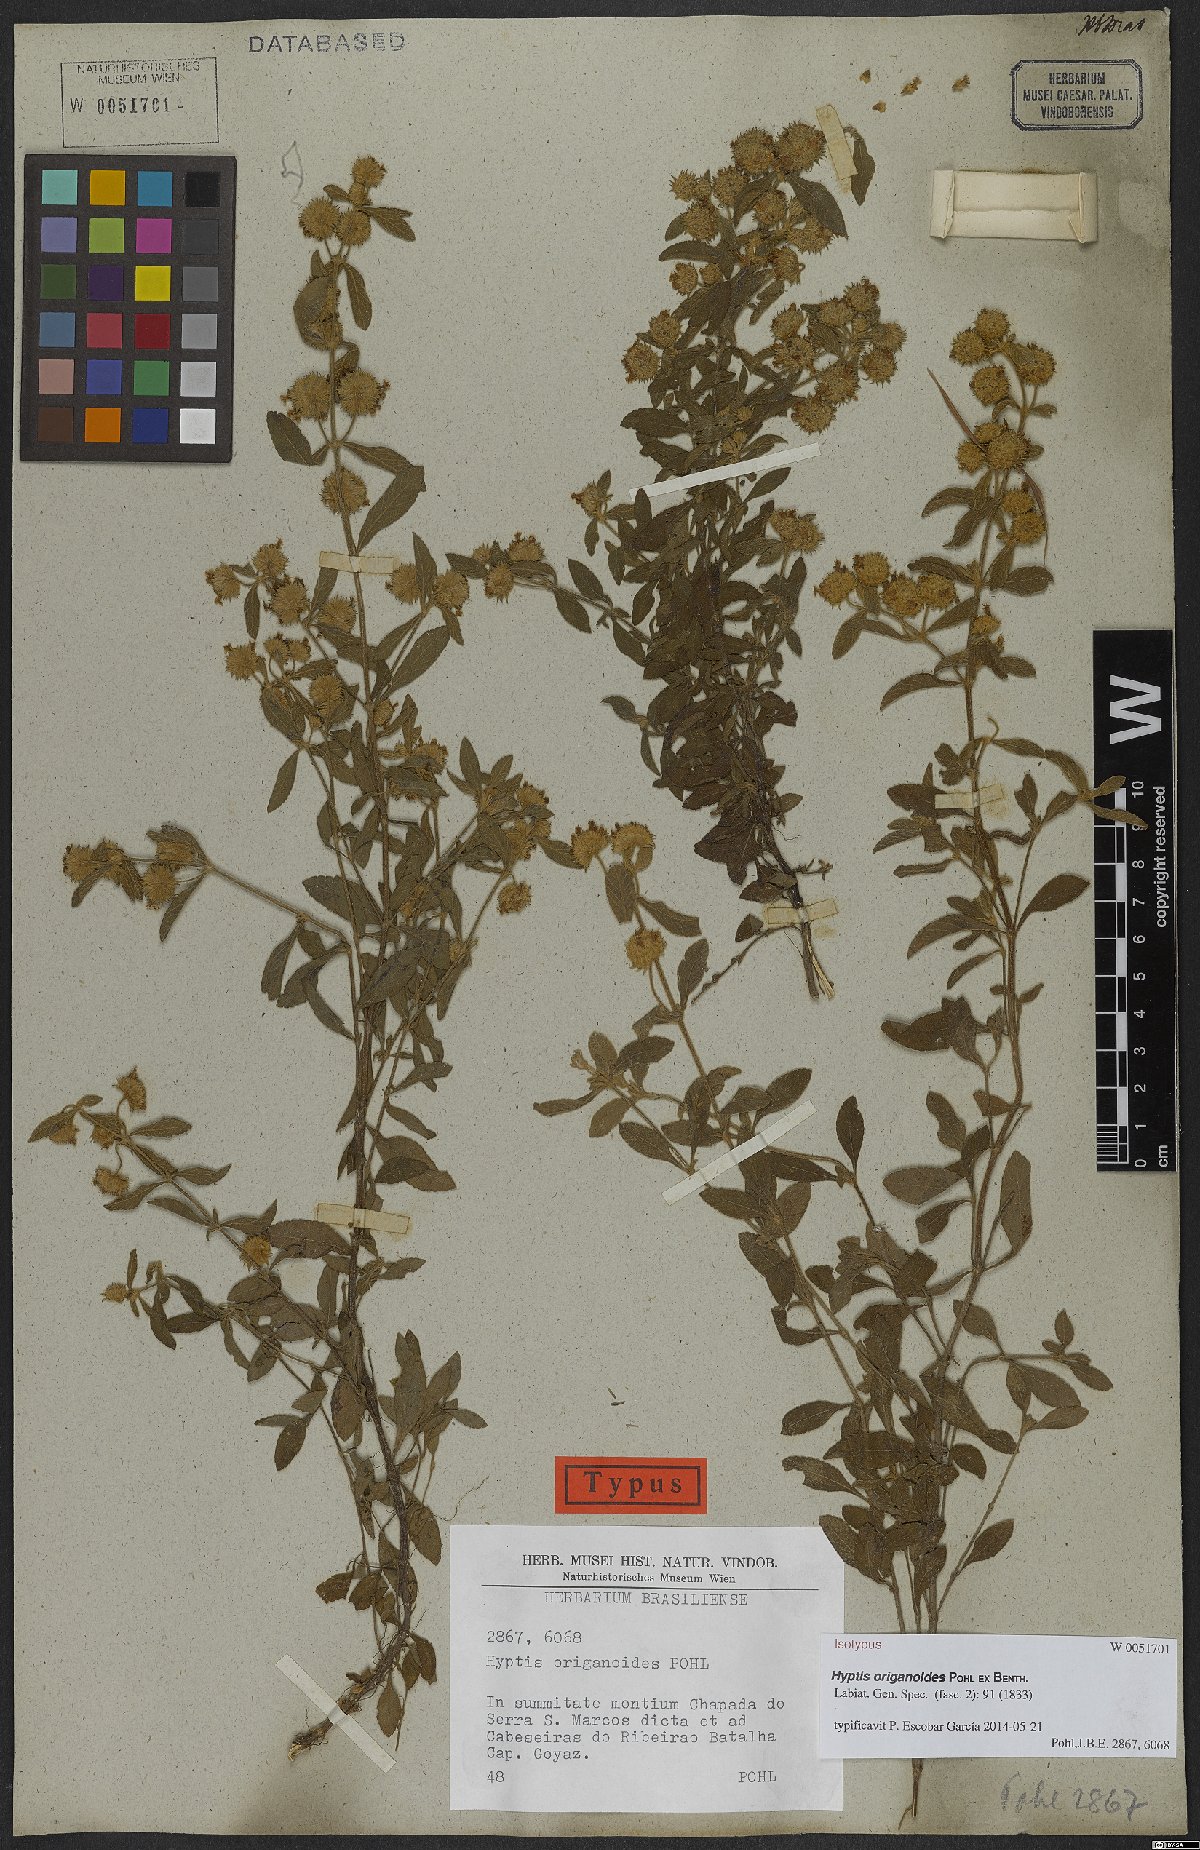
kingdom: Plantae
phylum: Tracheophyta
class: Magnoliopsida
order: Lamiales
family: Lamiaceae
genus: Hyptis
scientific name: Hyptis origanoides
